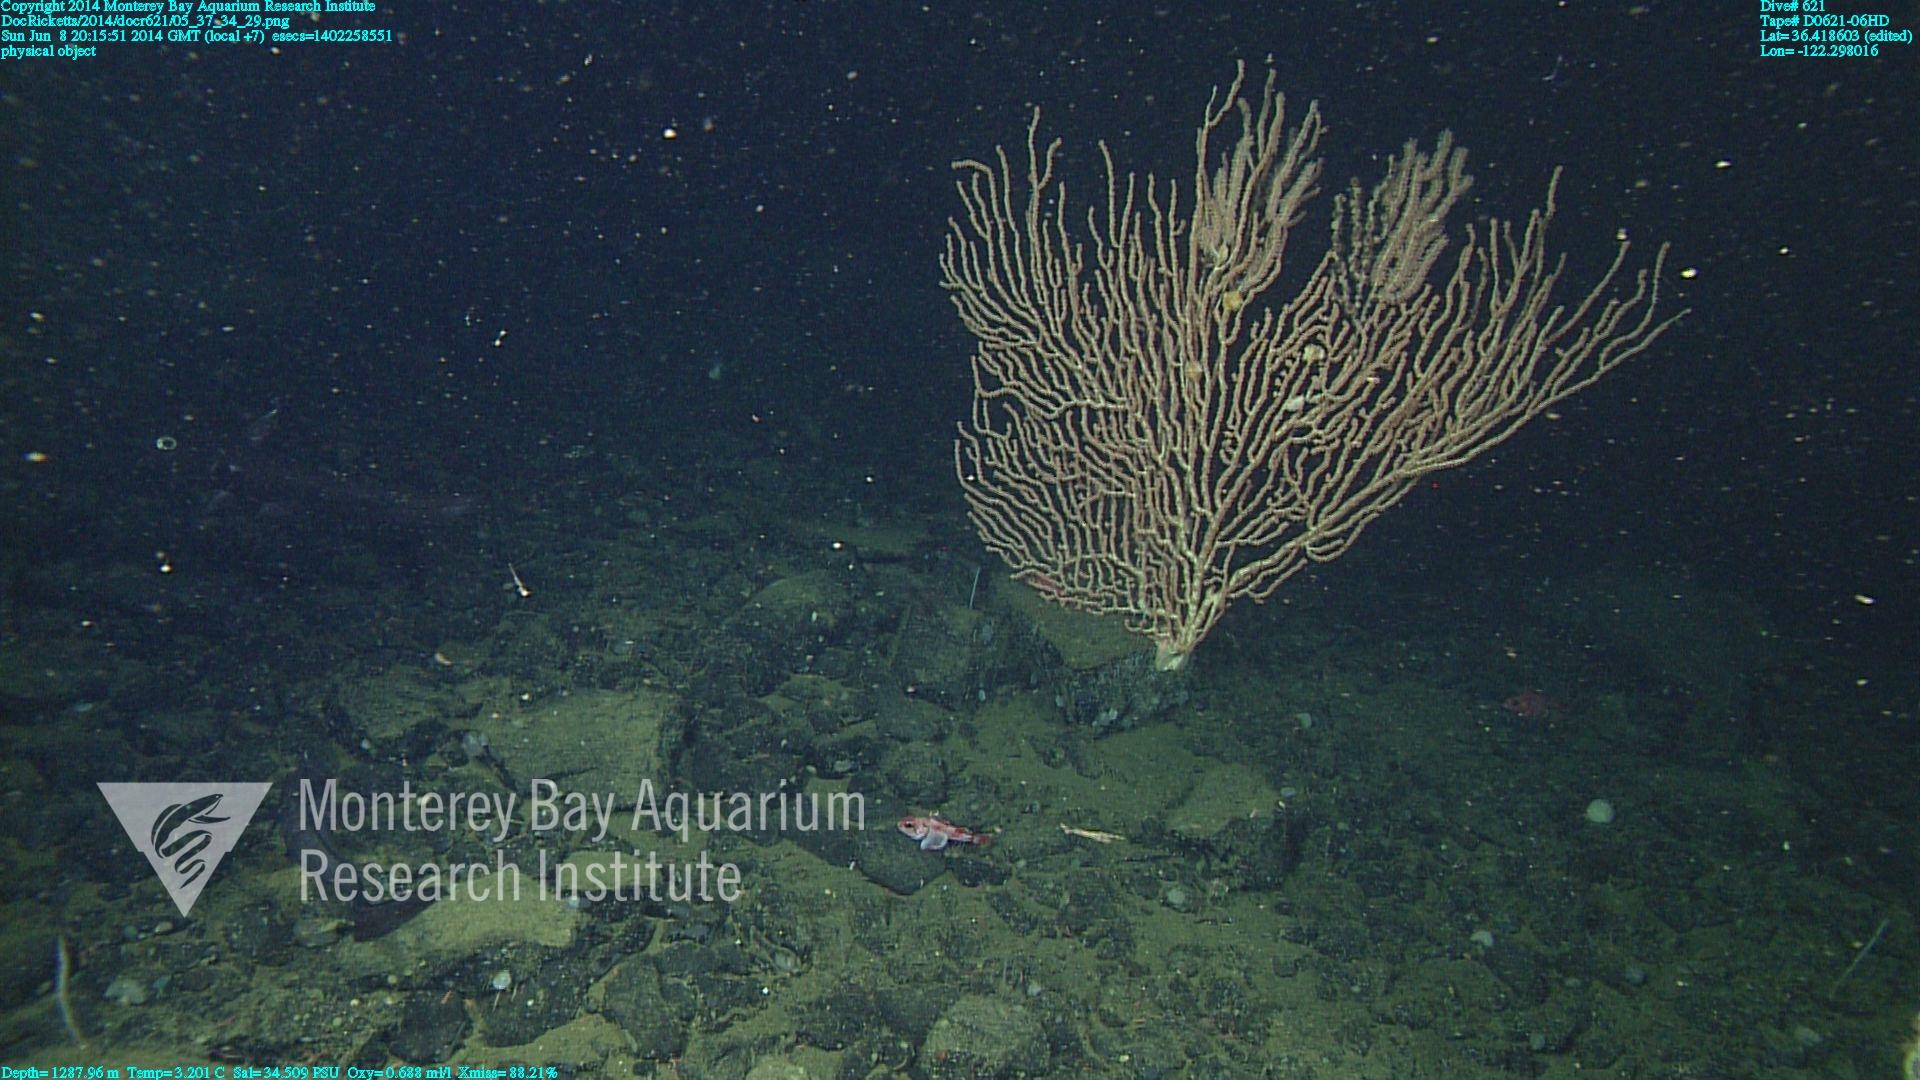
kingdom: Animalia
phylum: Cnidaria
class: Anthozoa
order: Scleralcyonacea
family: Keratoisididae
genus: Keratoisis
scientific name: Keratoisis
